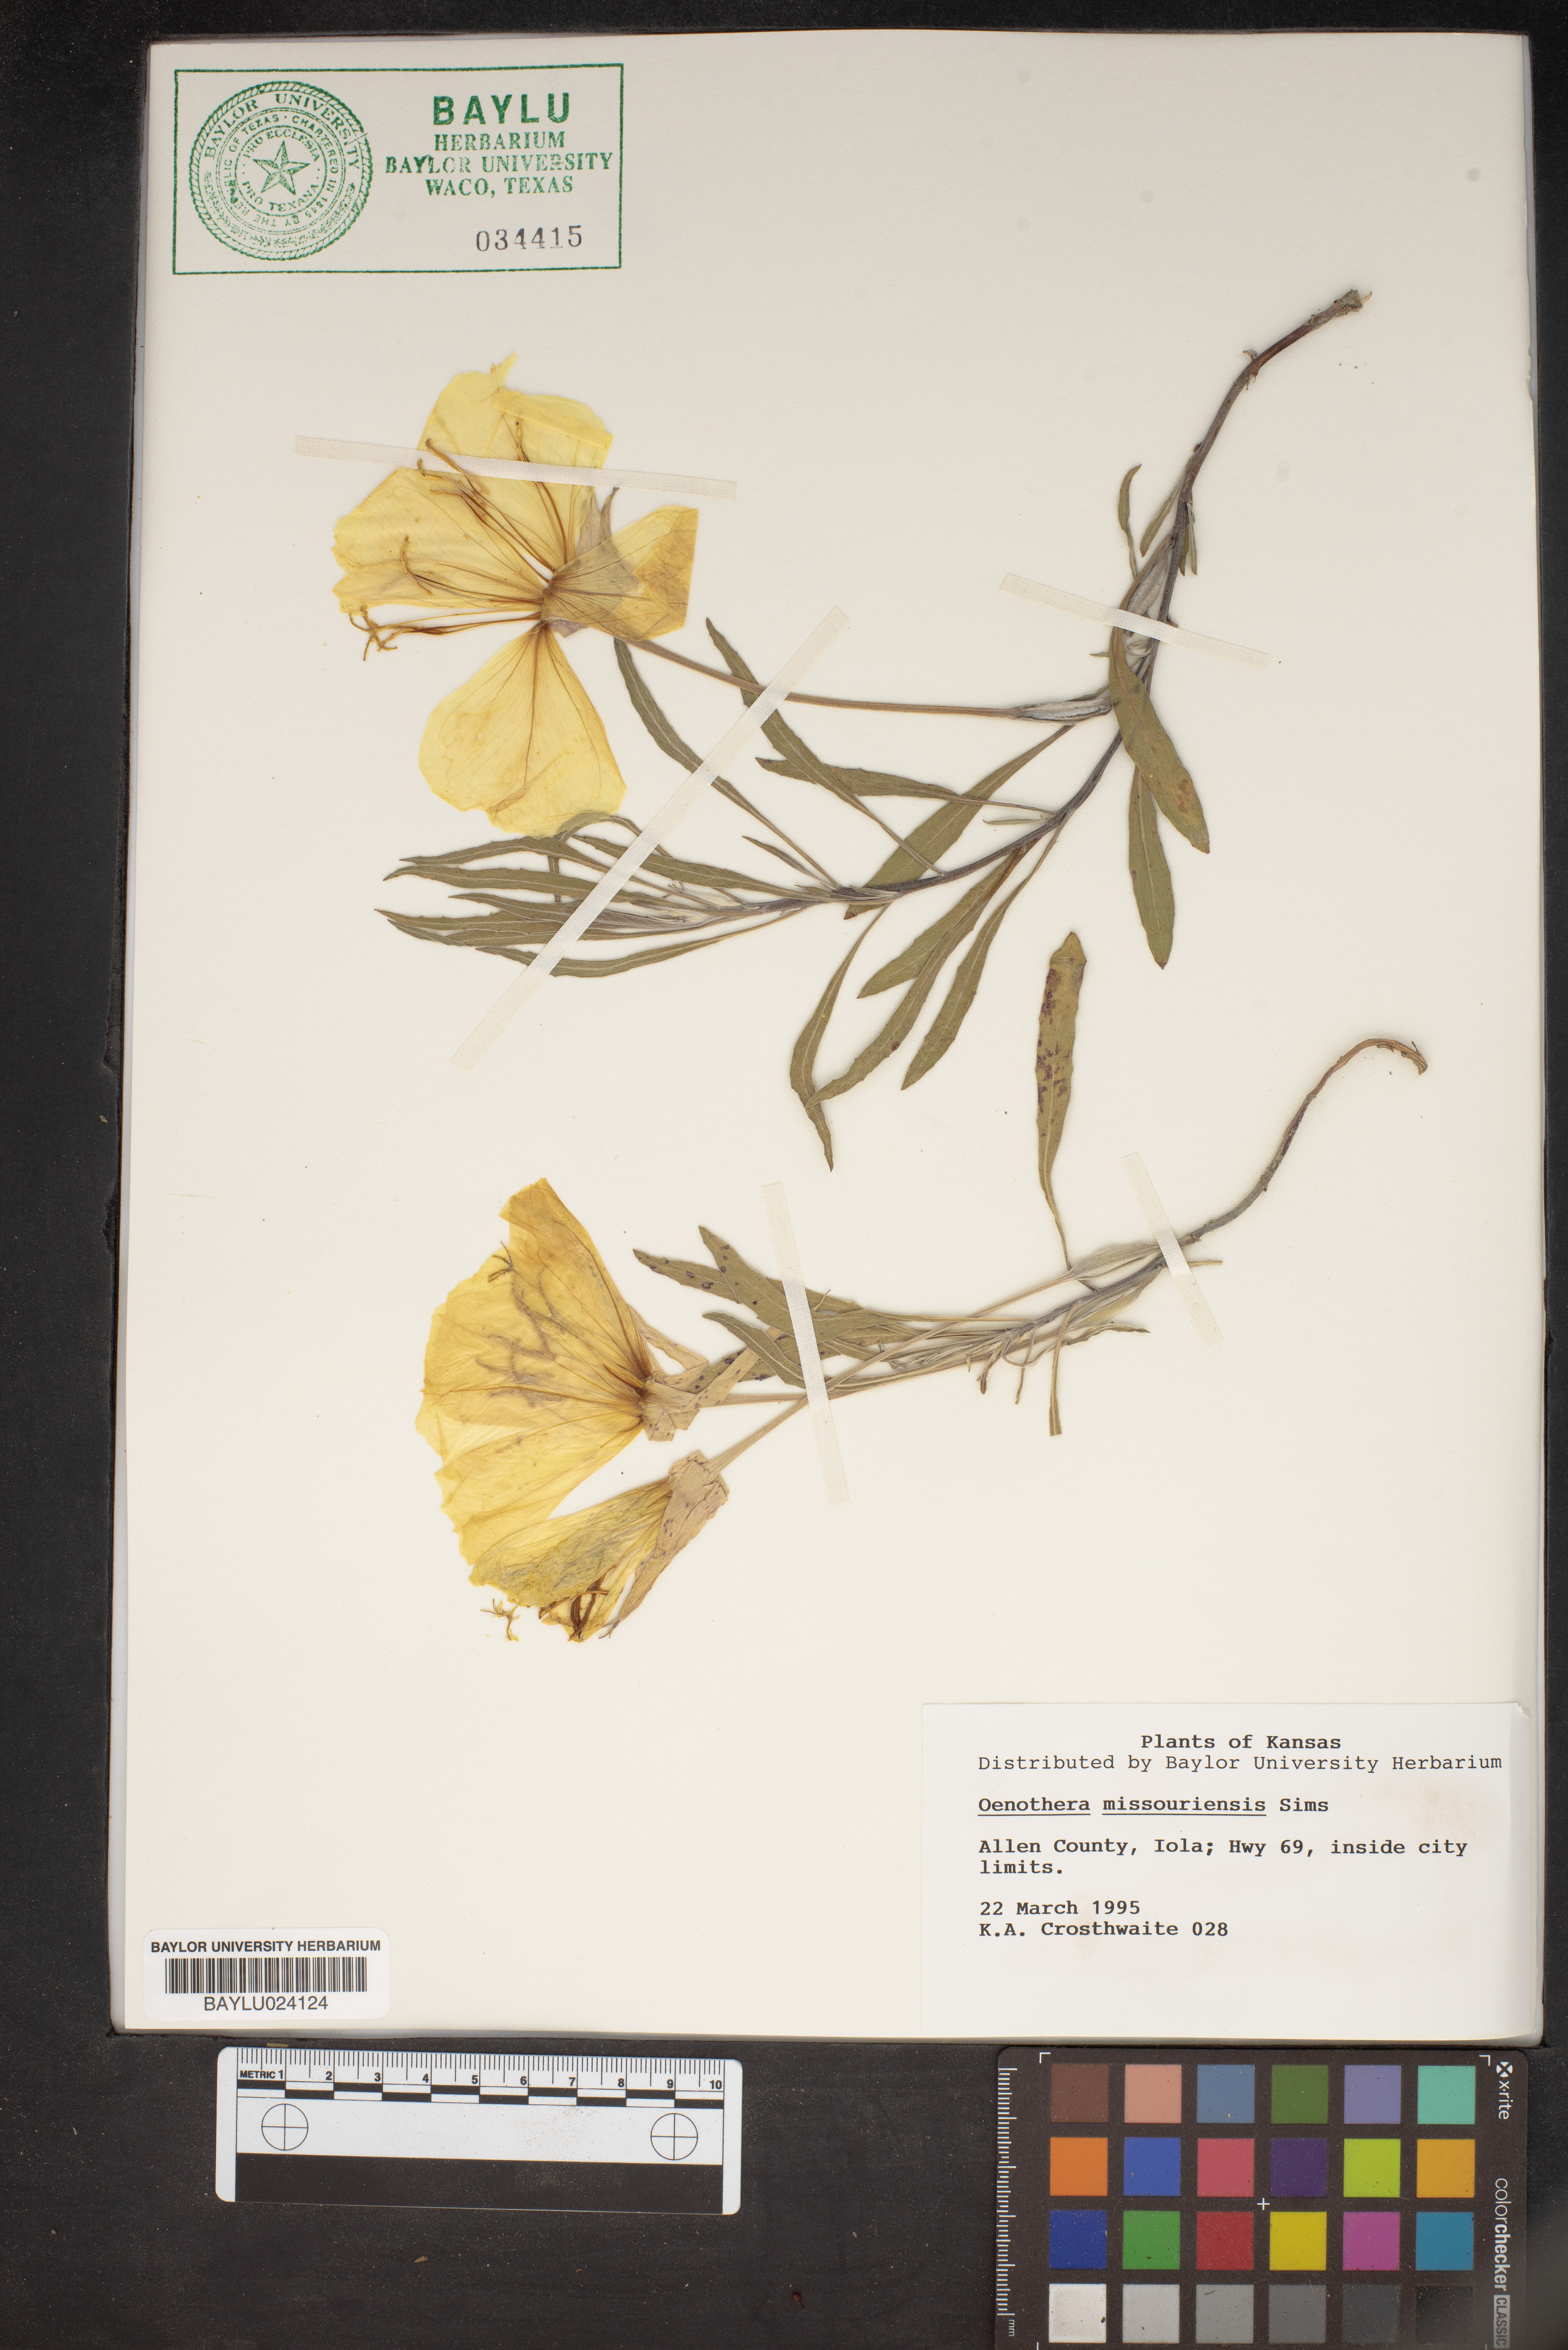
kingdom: Plantae
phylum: Tracheophyta
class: Magnoliopsida
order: Myrtales
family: Onagraceae
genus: Oenothera
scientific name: Oenothera macrocarpa
